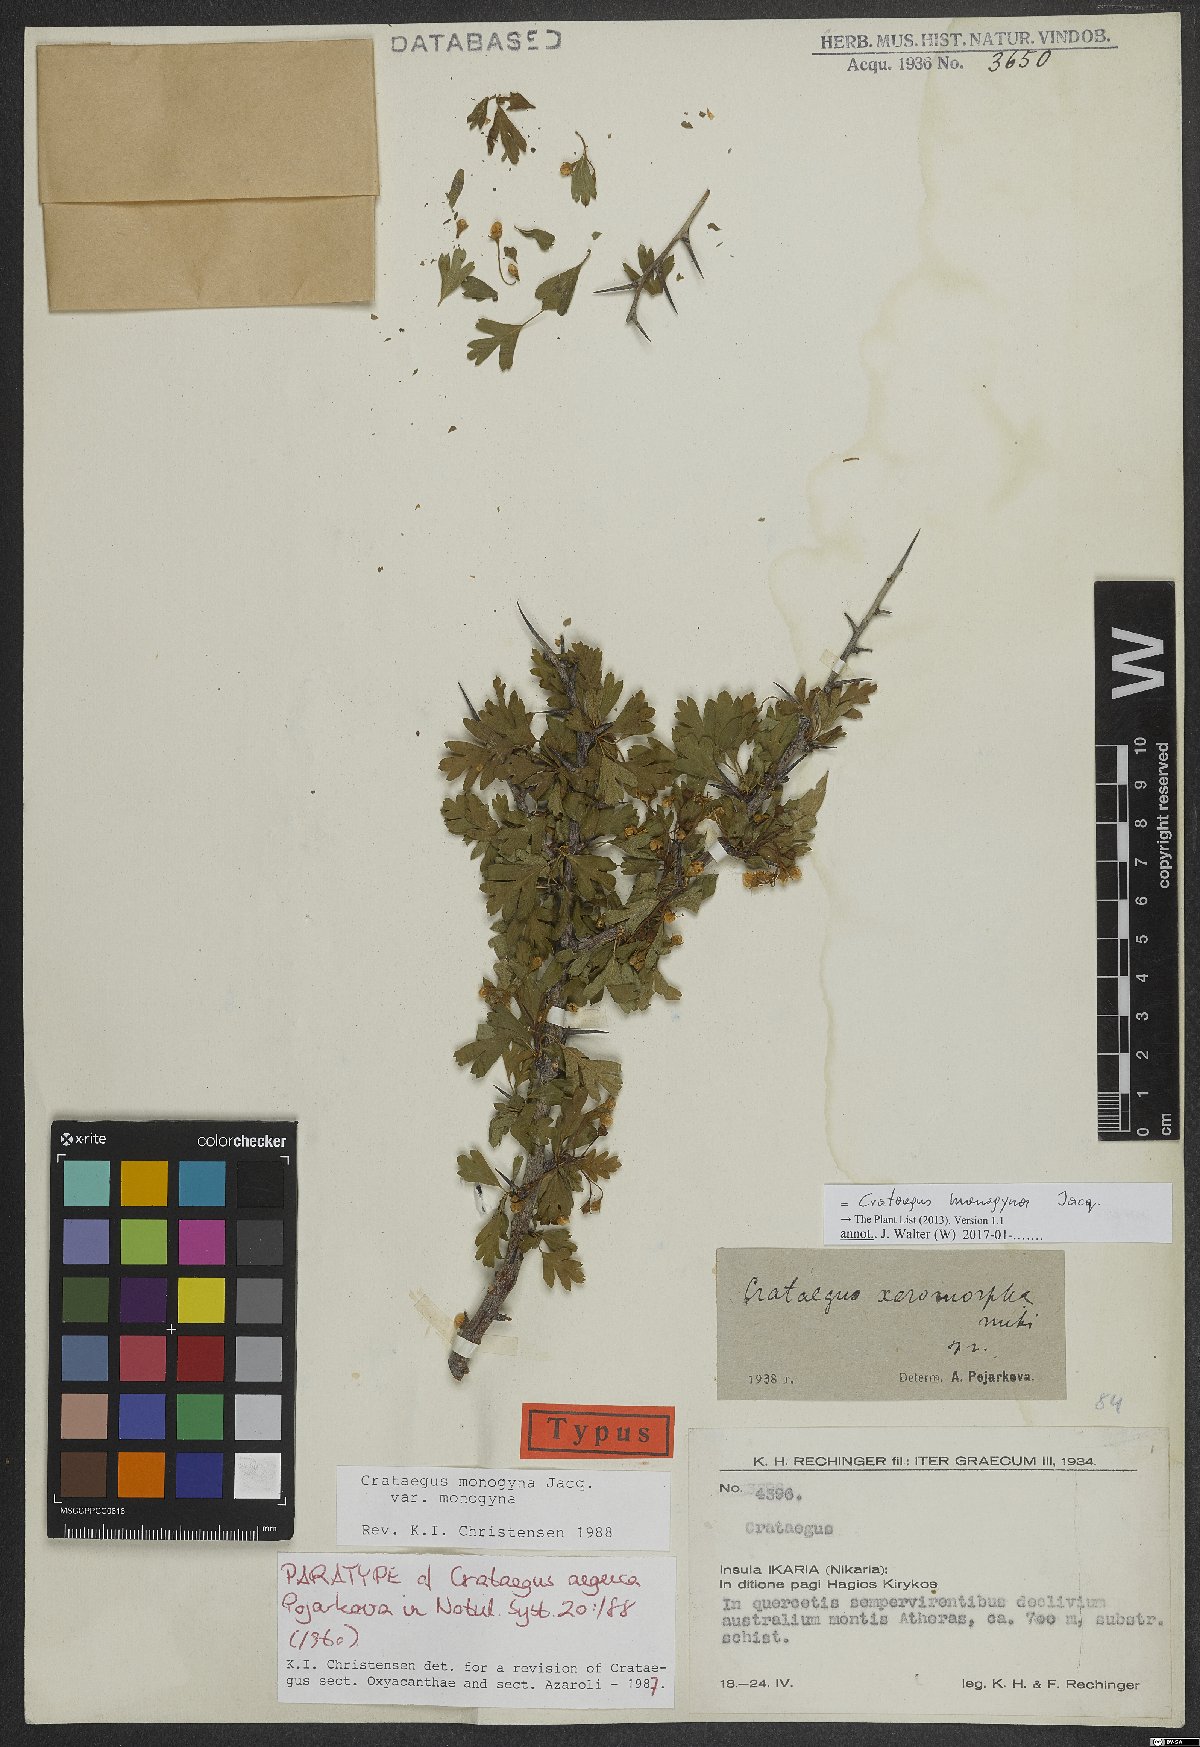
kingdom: Plantae
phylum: Tracheophyta
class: Magnoliopsida
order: Rosales
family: Rosaceae
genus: Crataegus
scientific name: Crataegus monogyna
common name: Hawthorn
